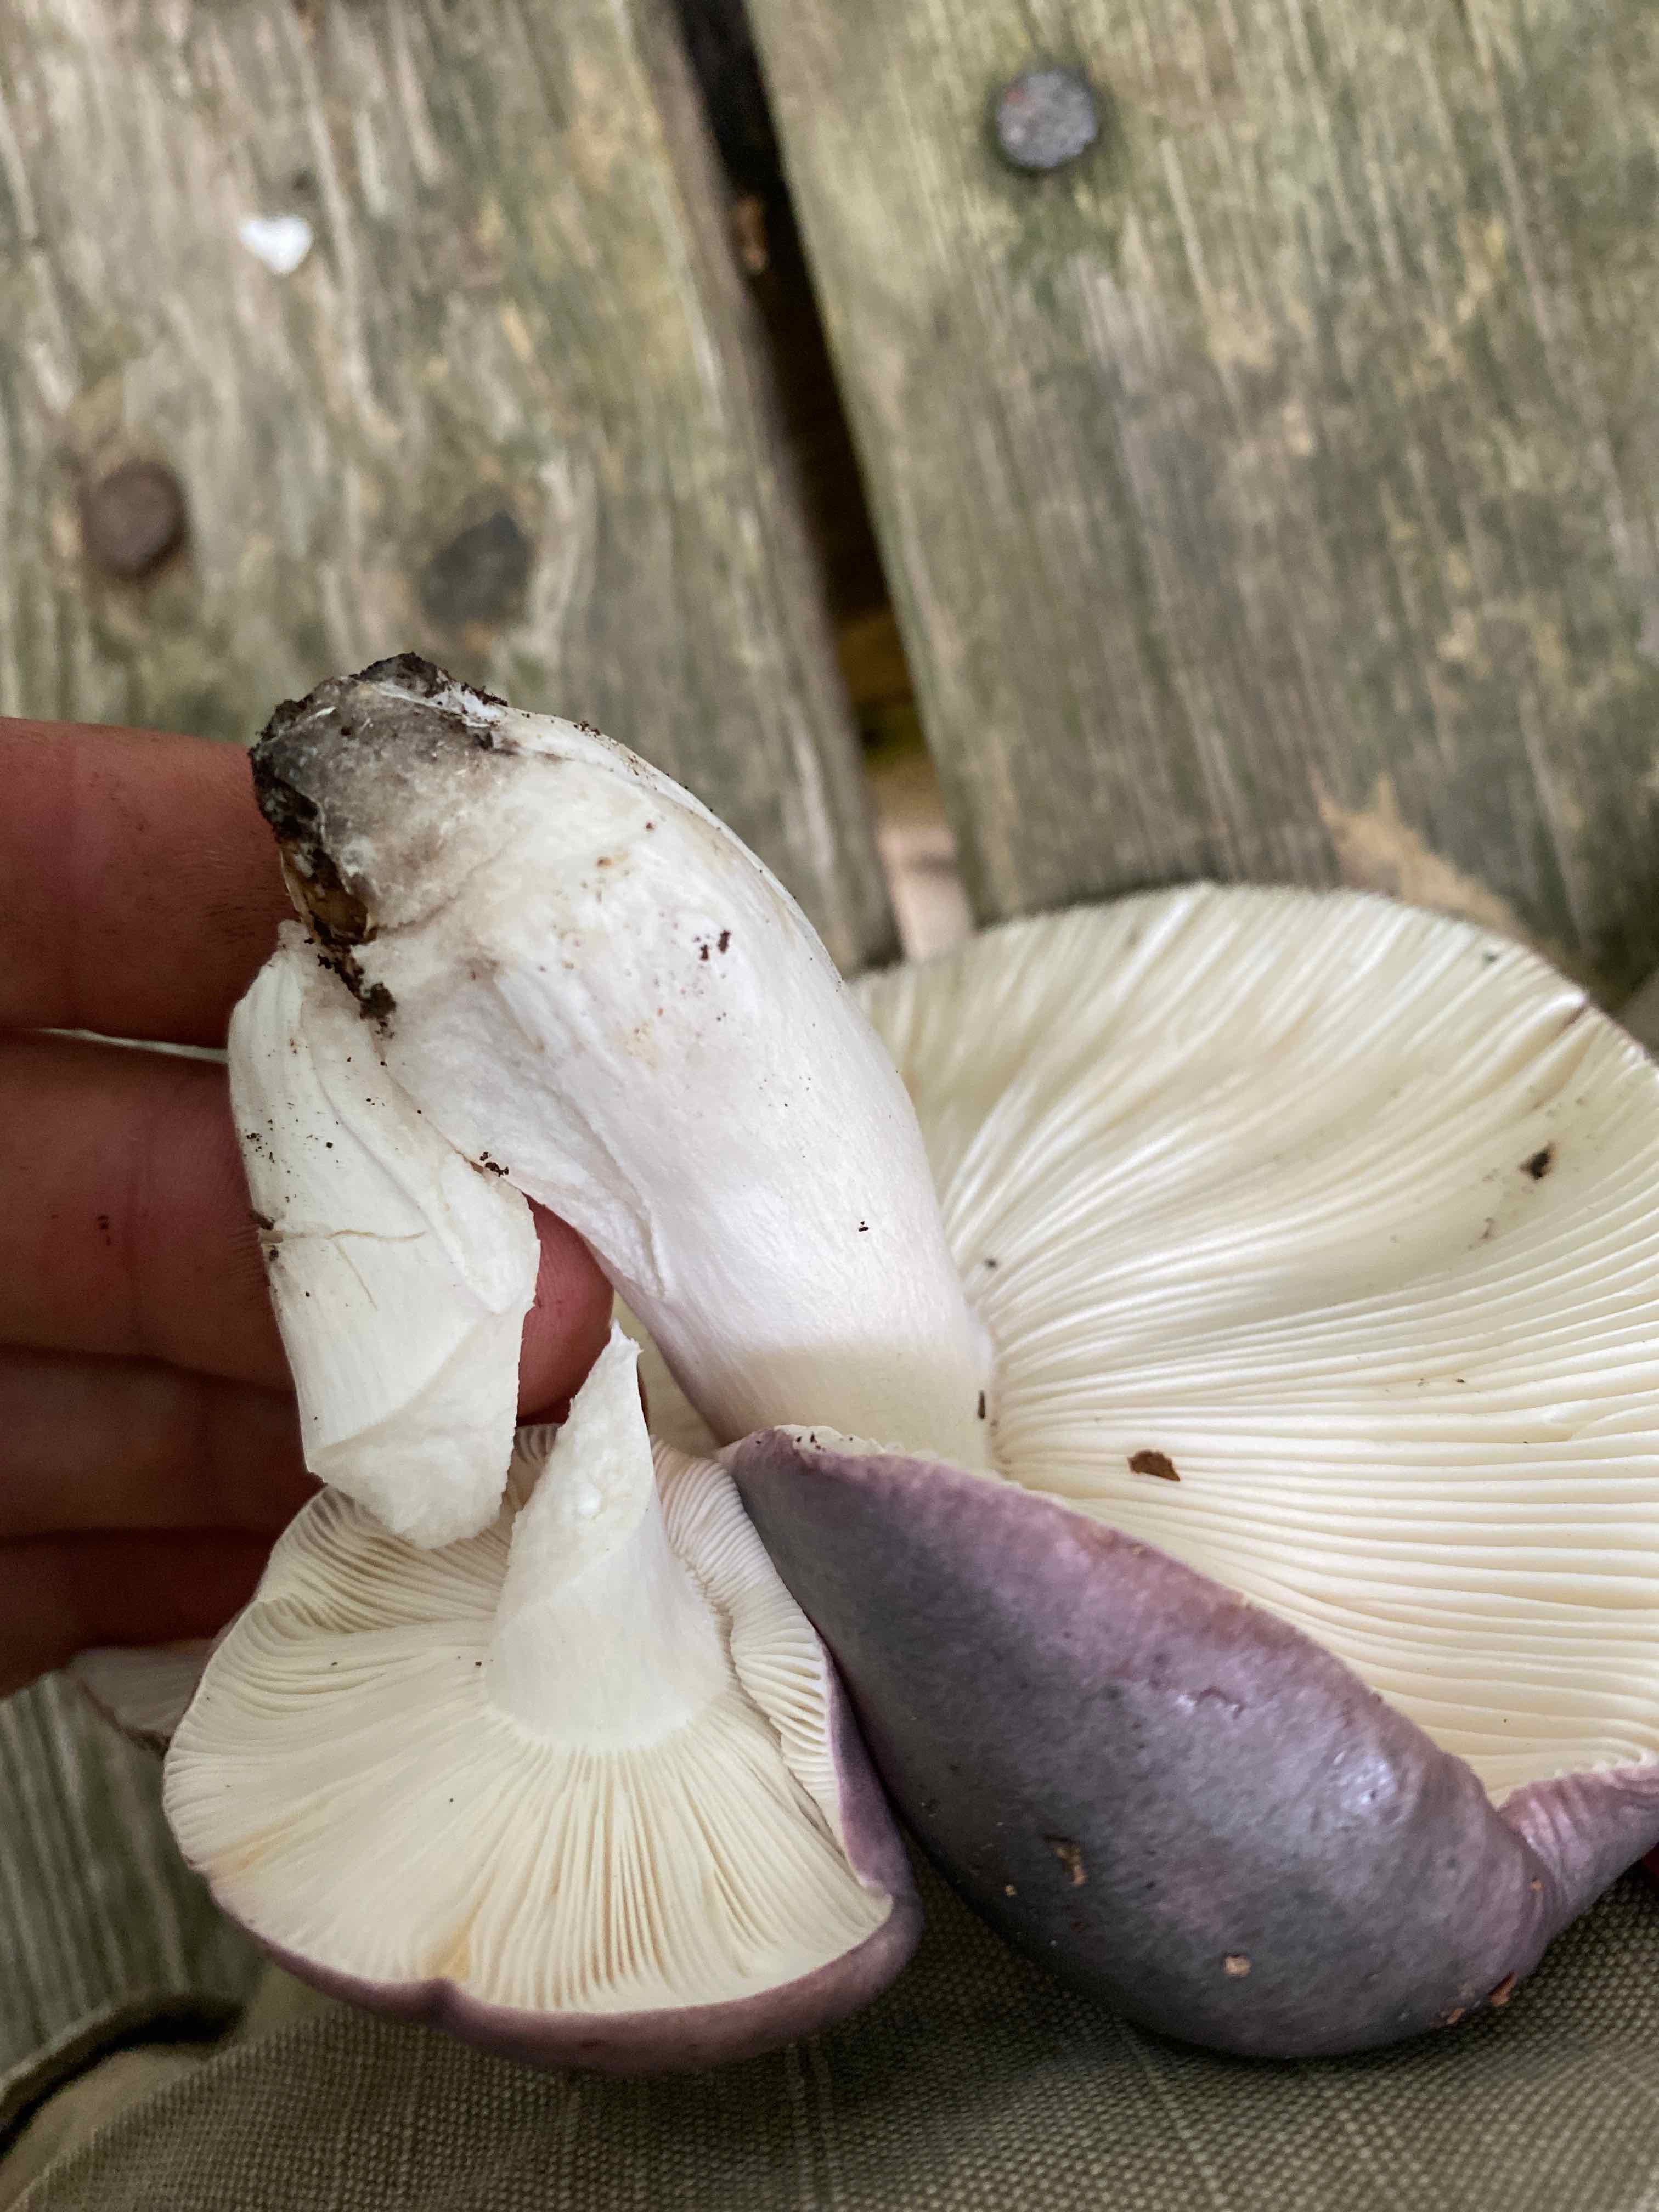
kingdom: Fungi
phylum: Basidiomycota
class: Agaricomycetes
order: Russulales
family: Russulaceae
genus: Russula
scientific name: Russula cyanoxantha
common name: broget skørhat
